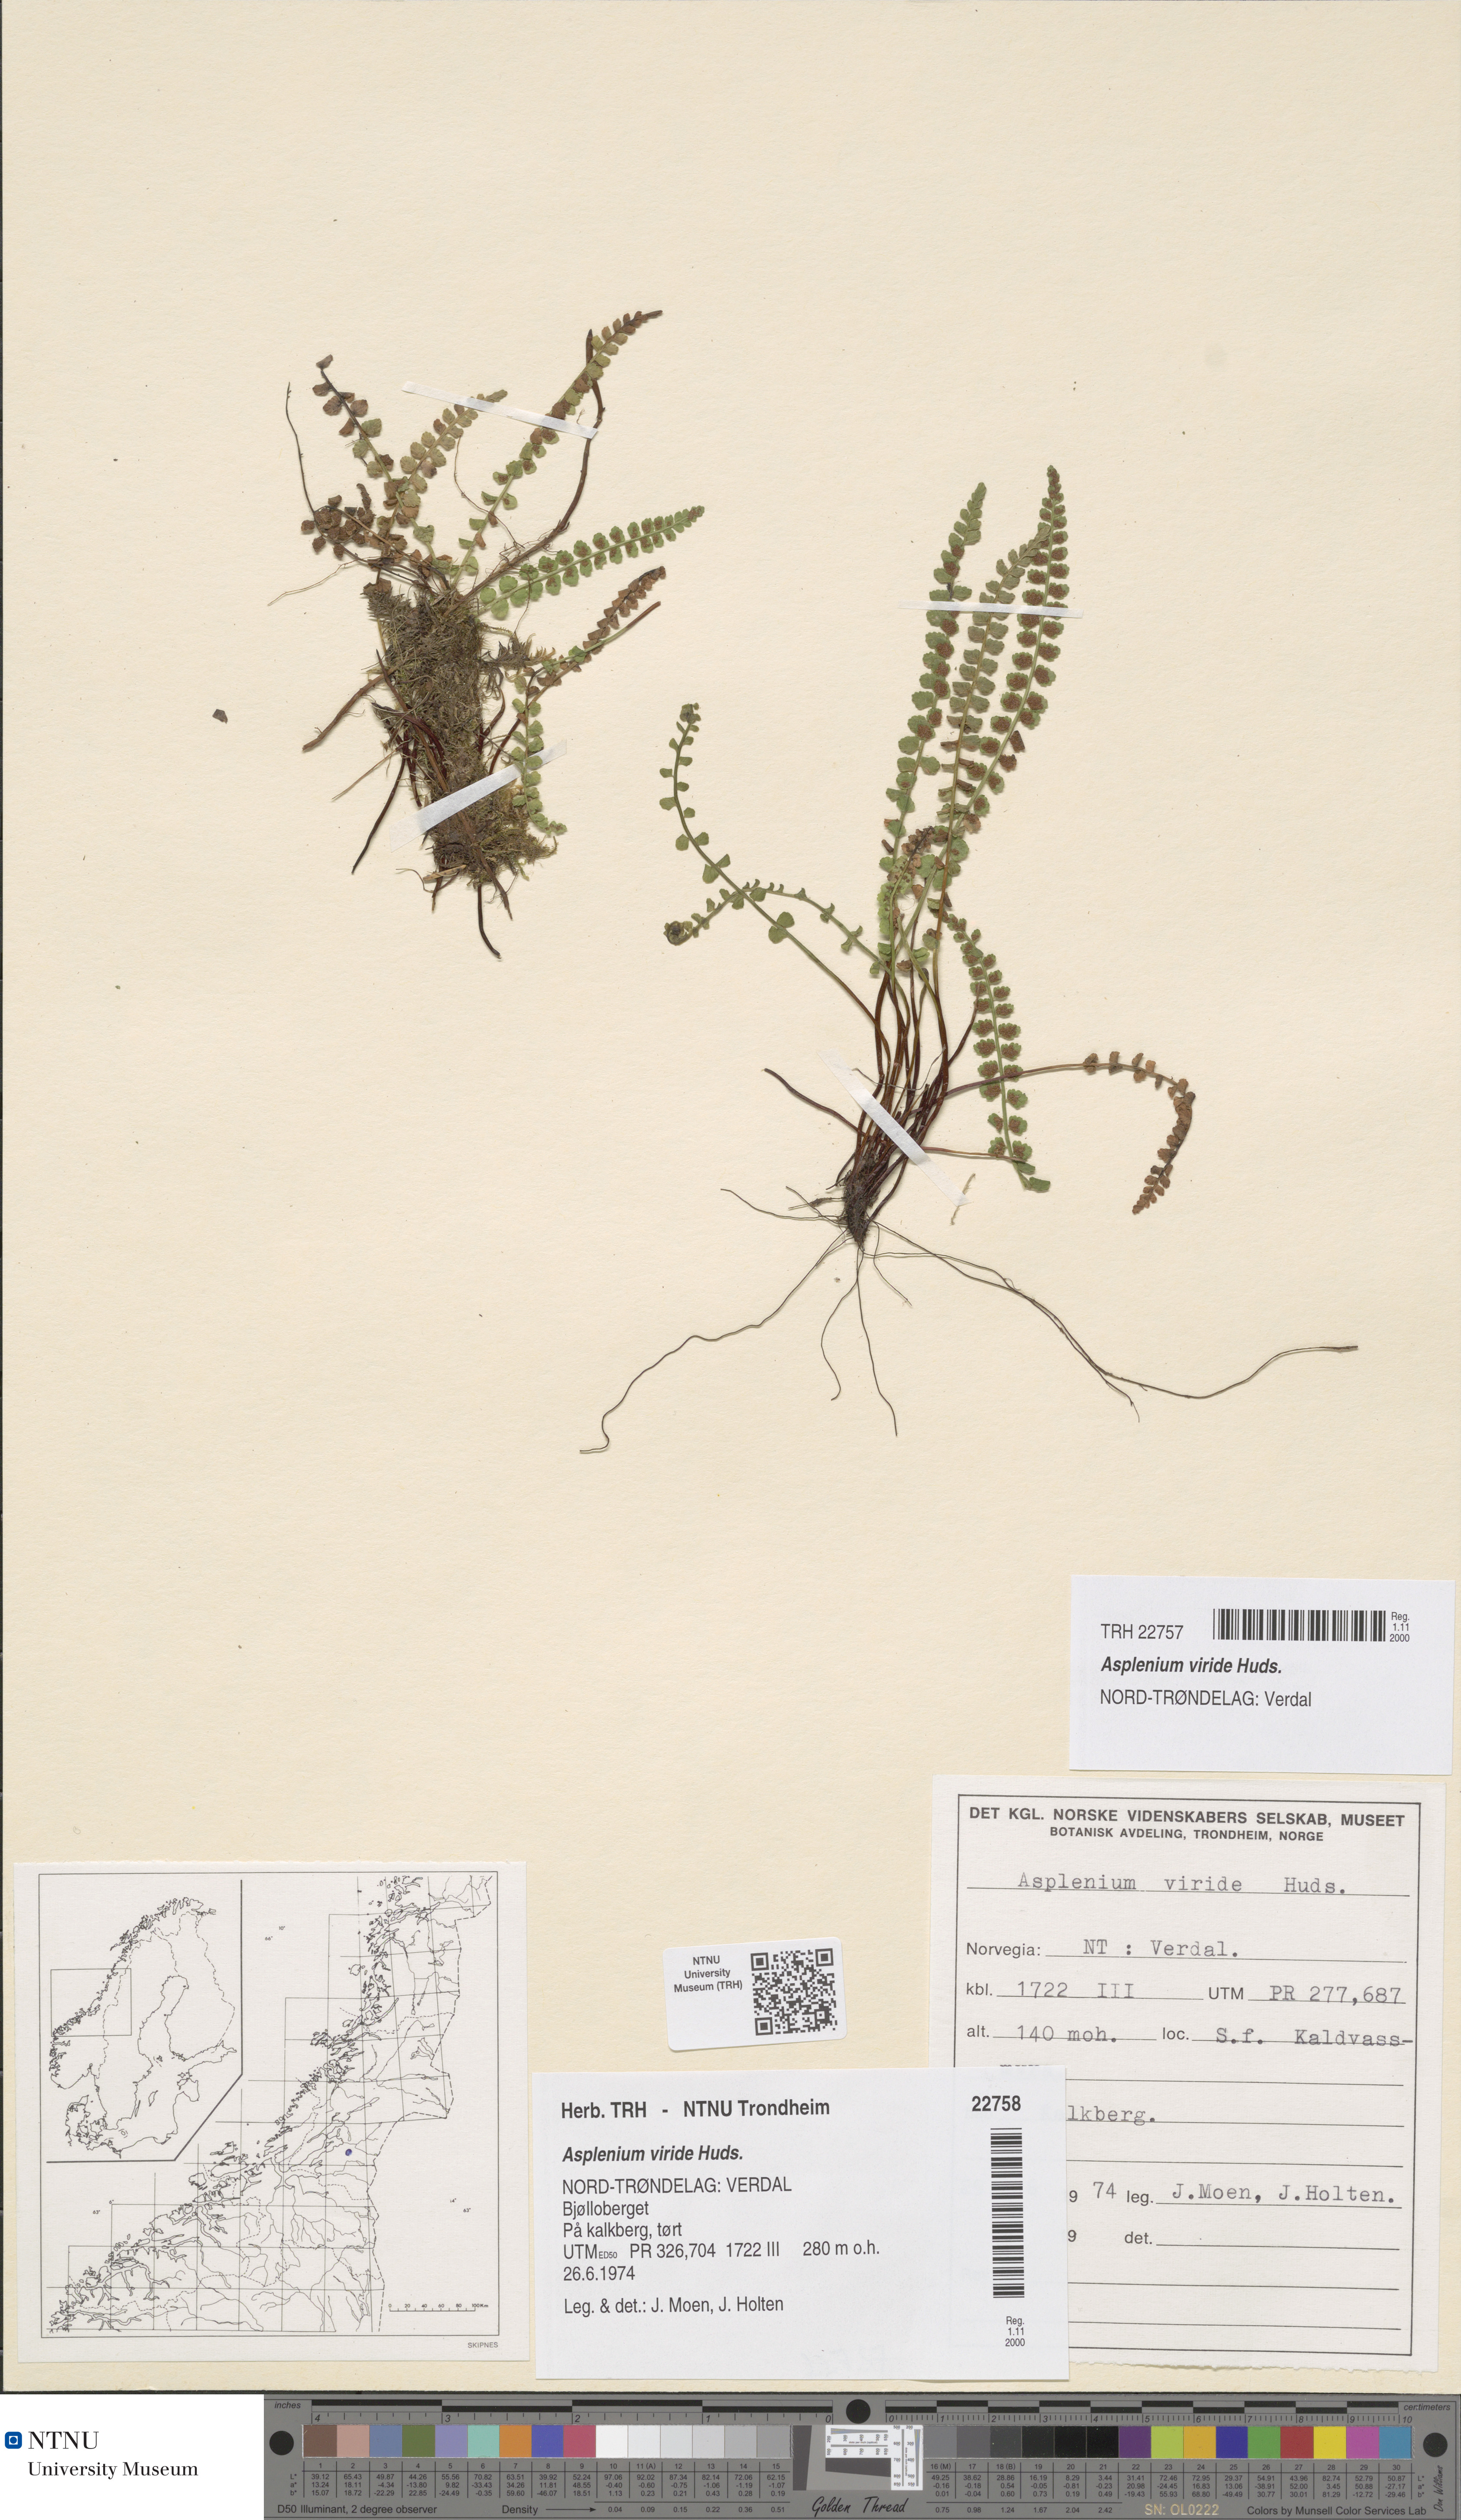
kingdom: Plantae
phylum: Tracheophyta
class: Polypodiopsida
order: Polypodiales
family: Aspleniaceae
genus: Asplenium
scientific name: Asplenium viride
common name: Green spleenwort
